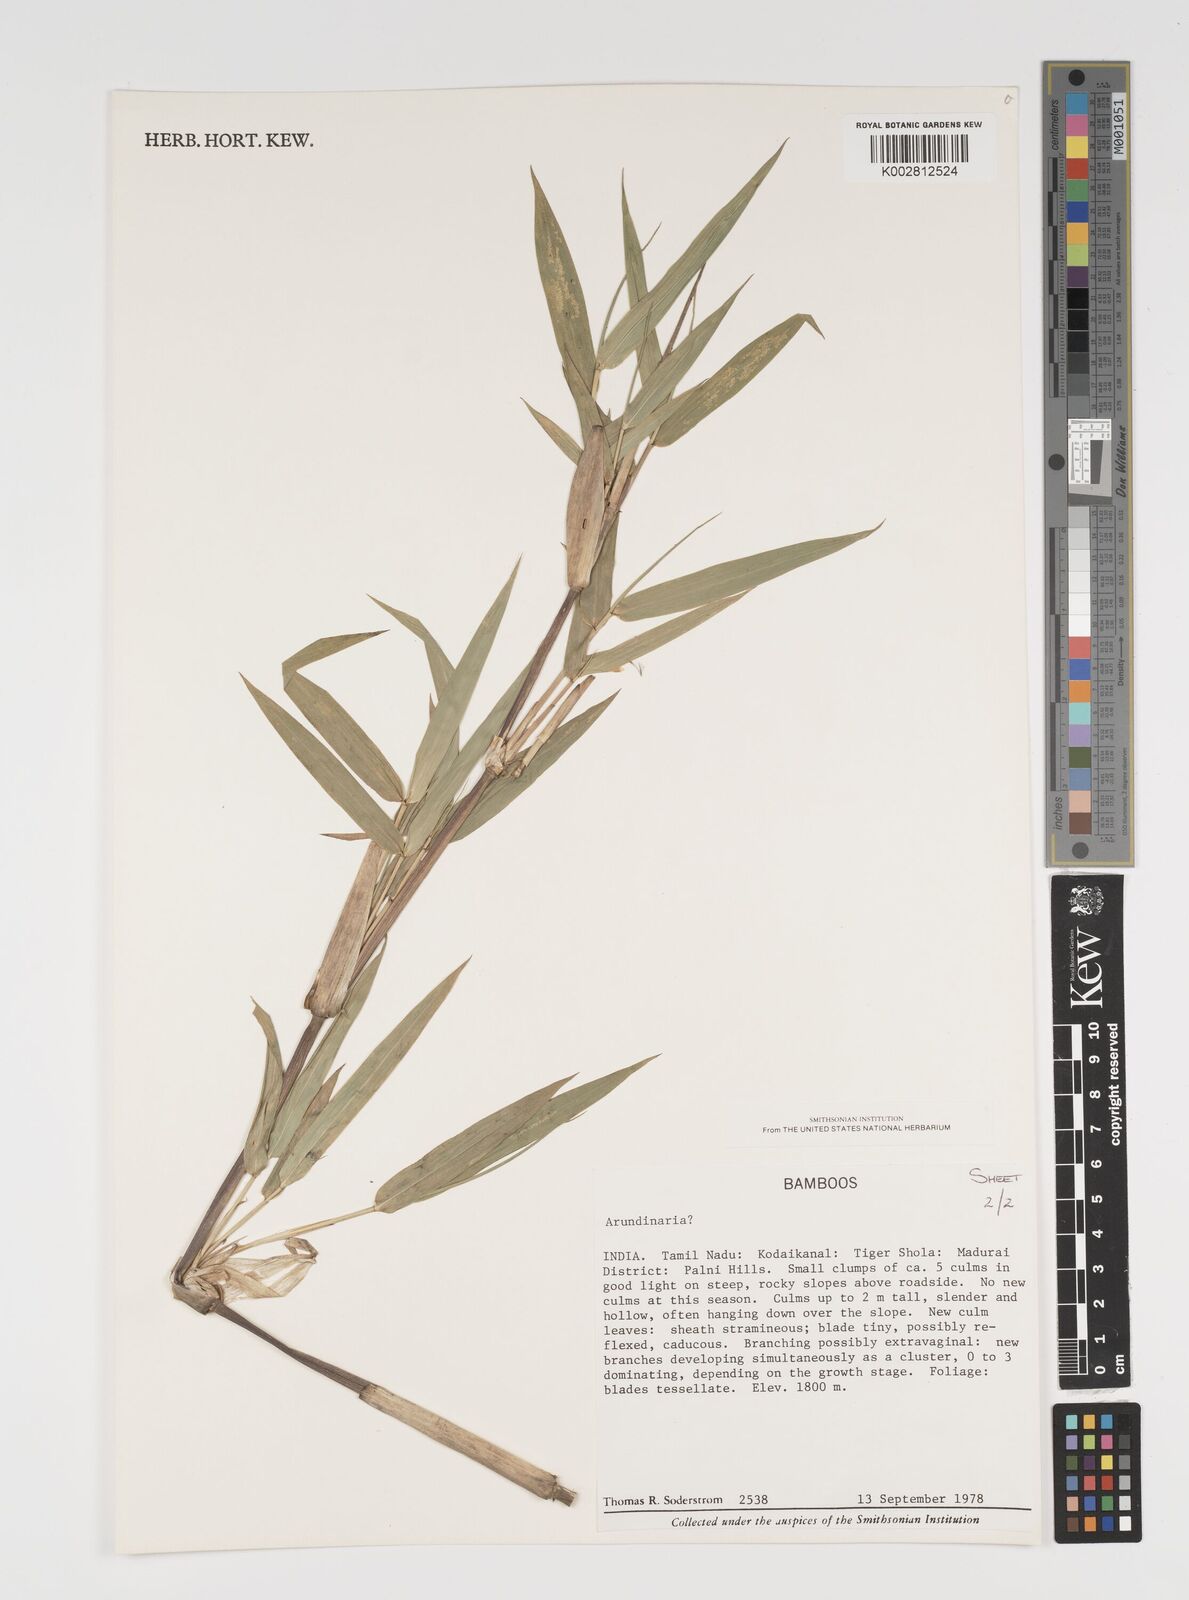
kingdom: Plantae
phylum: Tracheophyta
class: Liliopsida
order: Poales
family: Poaceae
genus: Arundinaria
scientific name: Arundinaria
